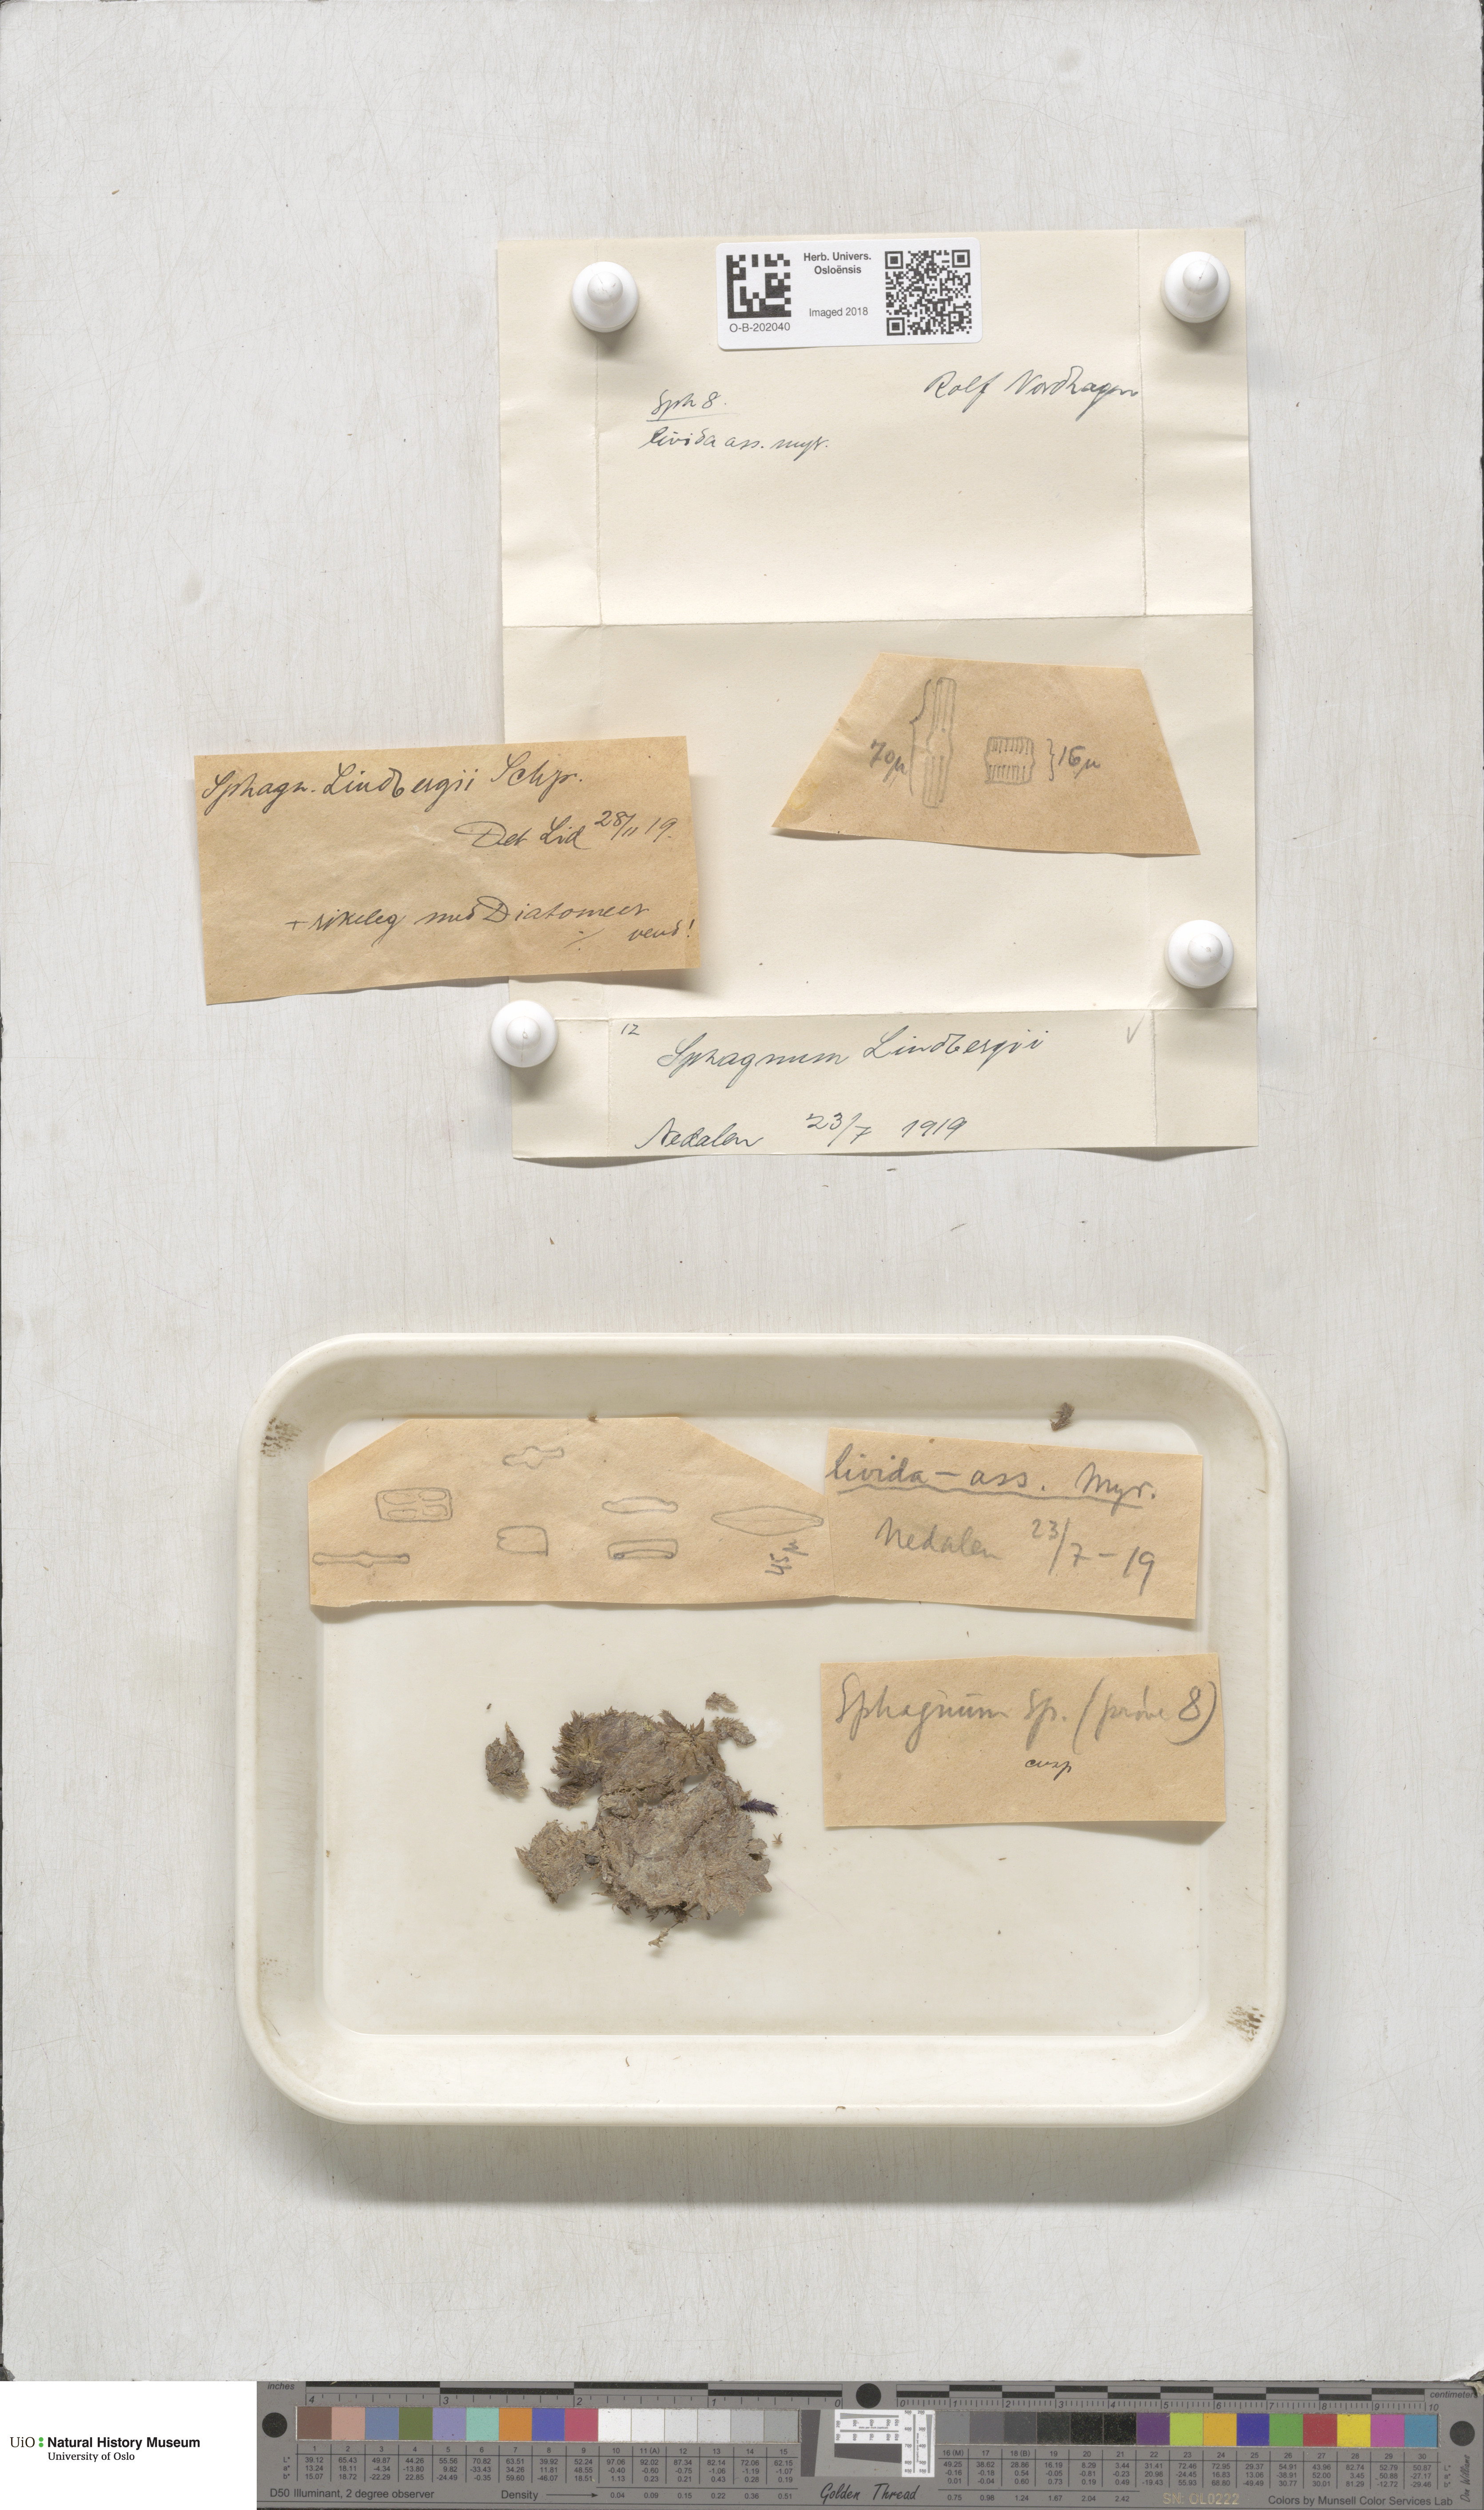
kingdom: Plantae
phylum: Bryophyta
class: Sphagnopsida
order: Sphagnales
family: Sphagnaceae
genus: Sphagnum
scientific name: Sphagnum lindbergii
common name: Lindberg's peat moss
